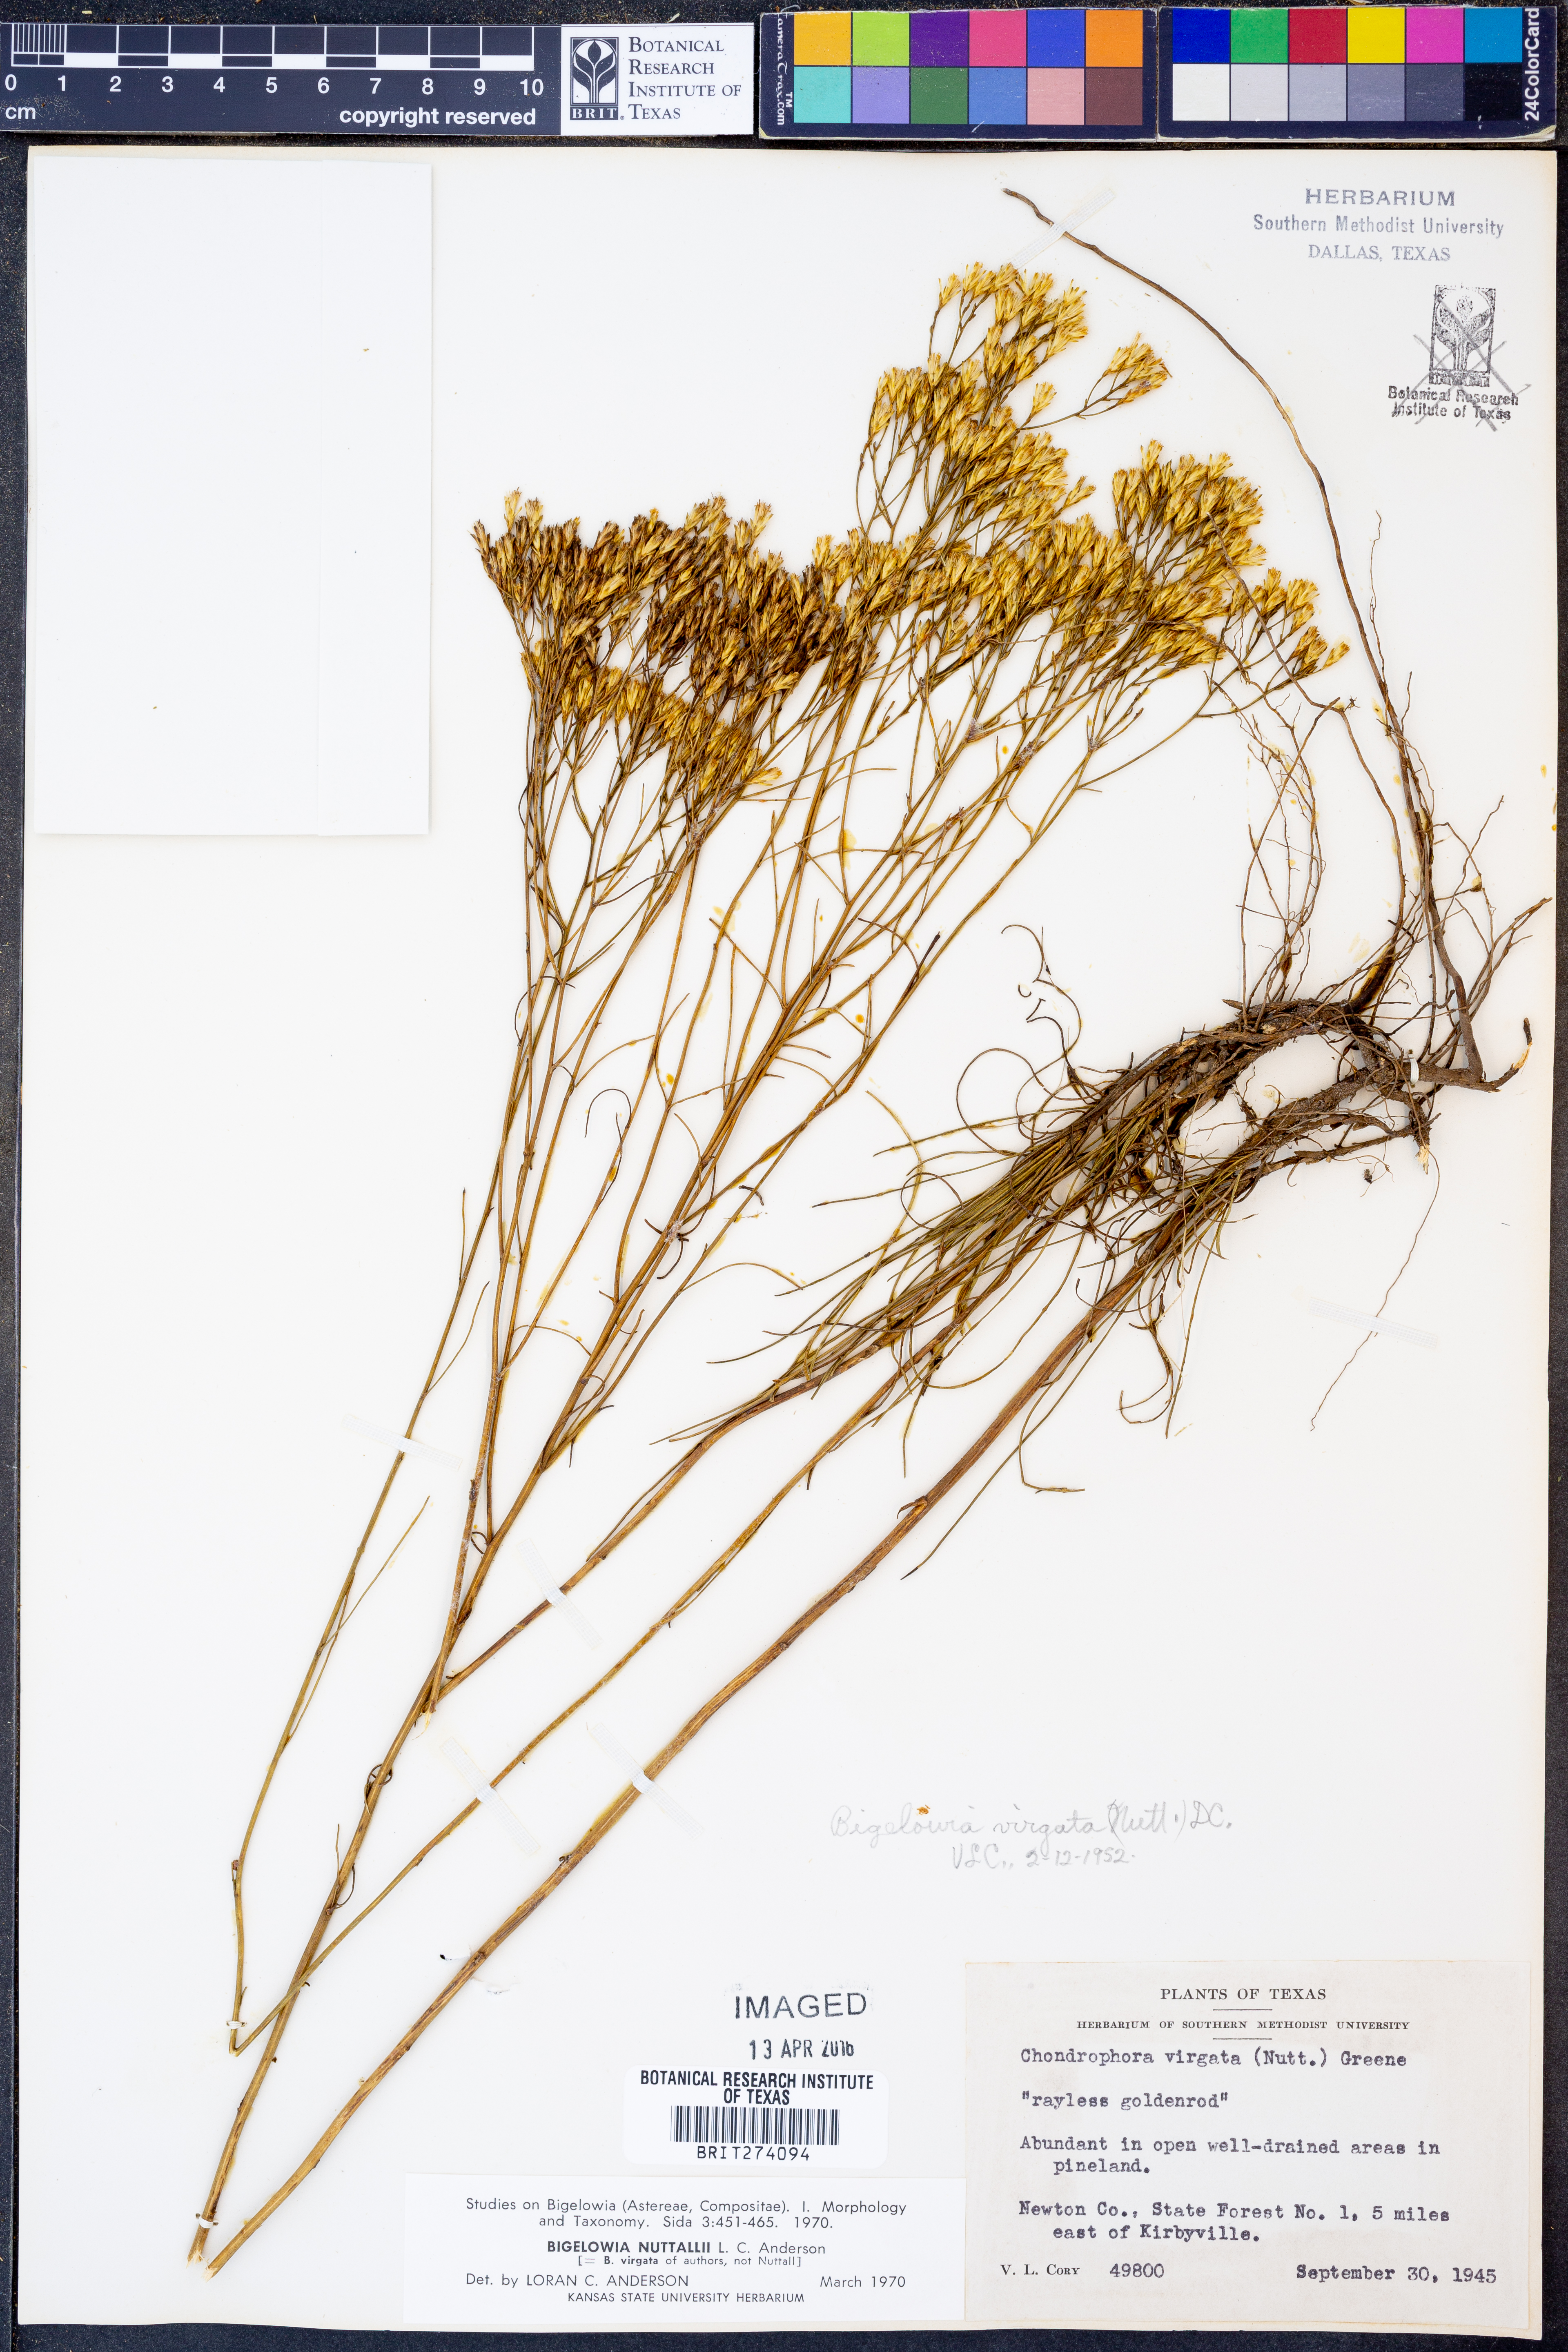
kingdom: Plantae
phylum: Tracheophyta
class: Magnoliopsida
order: Asterales
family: Asteraceae
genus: Bigelowia
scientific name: Bigelowia nuttallii
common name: Nuttall's rayless-goldenrod
